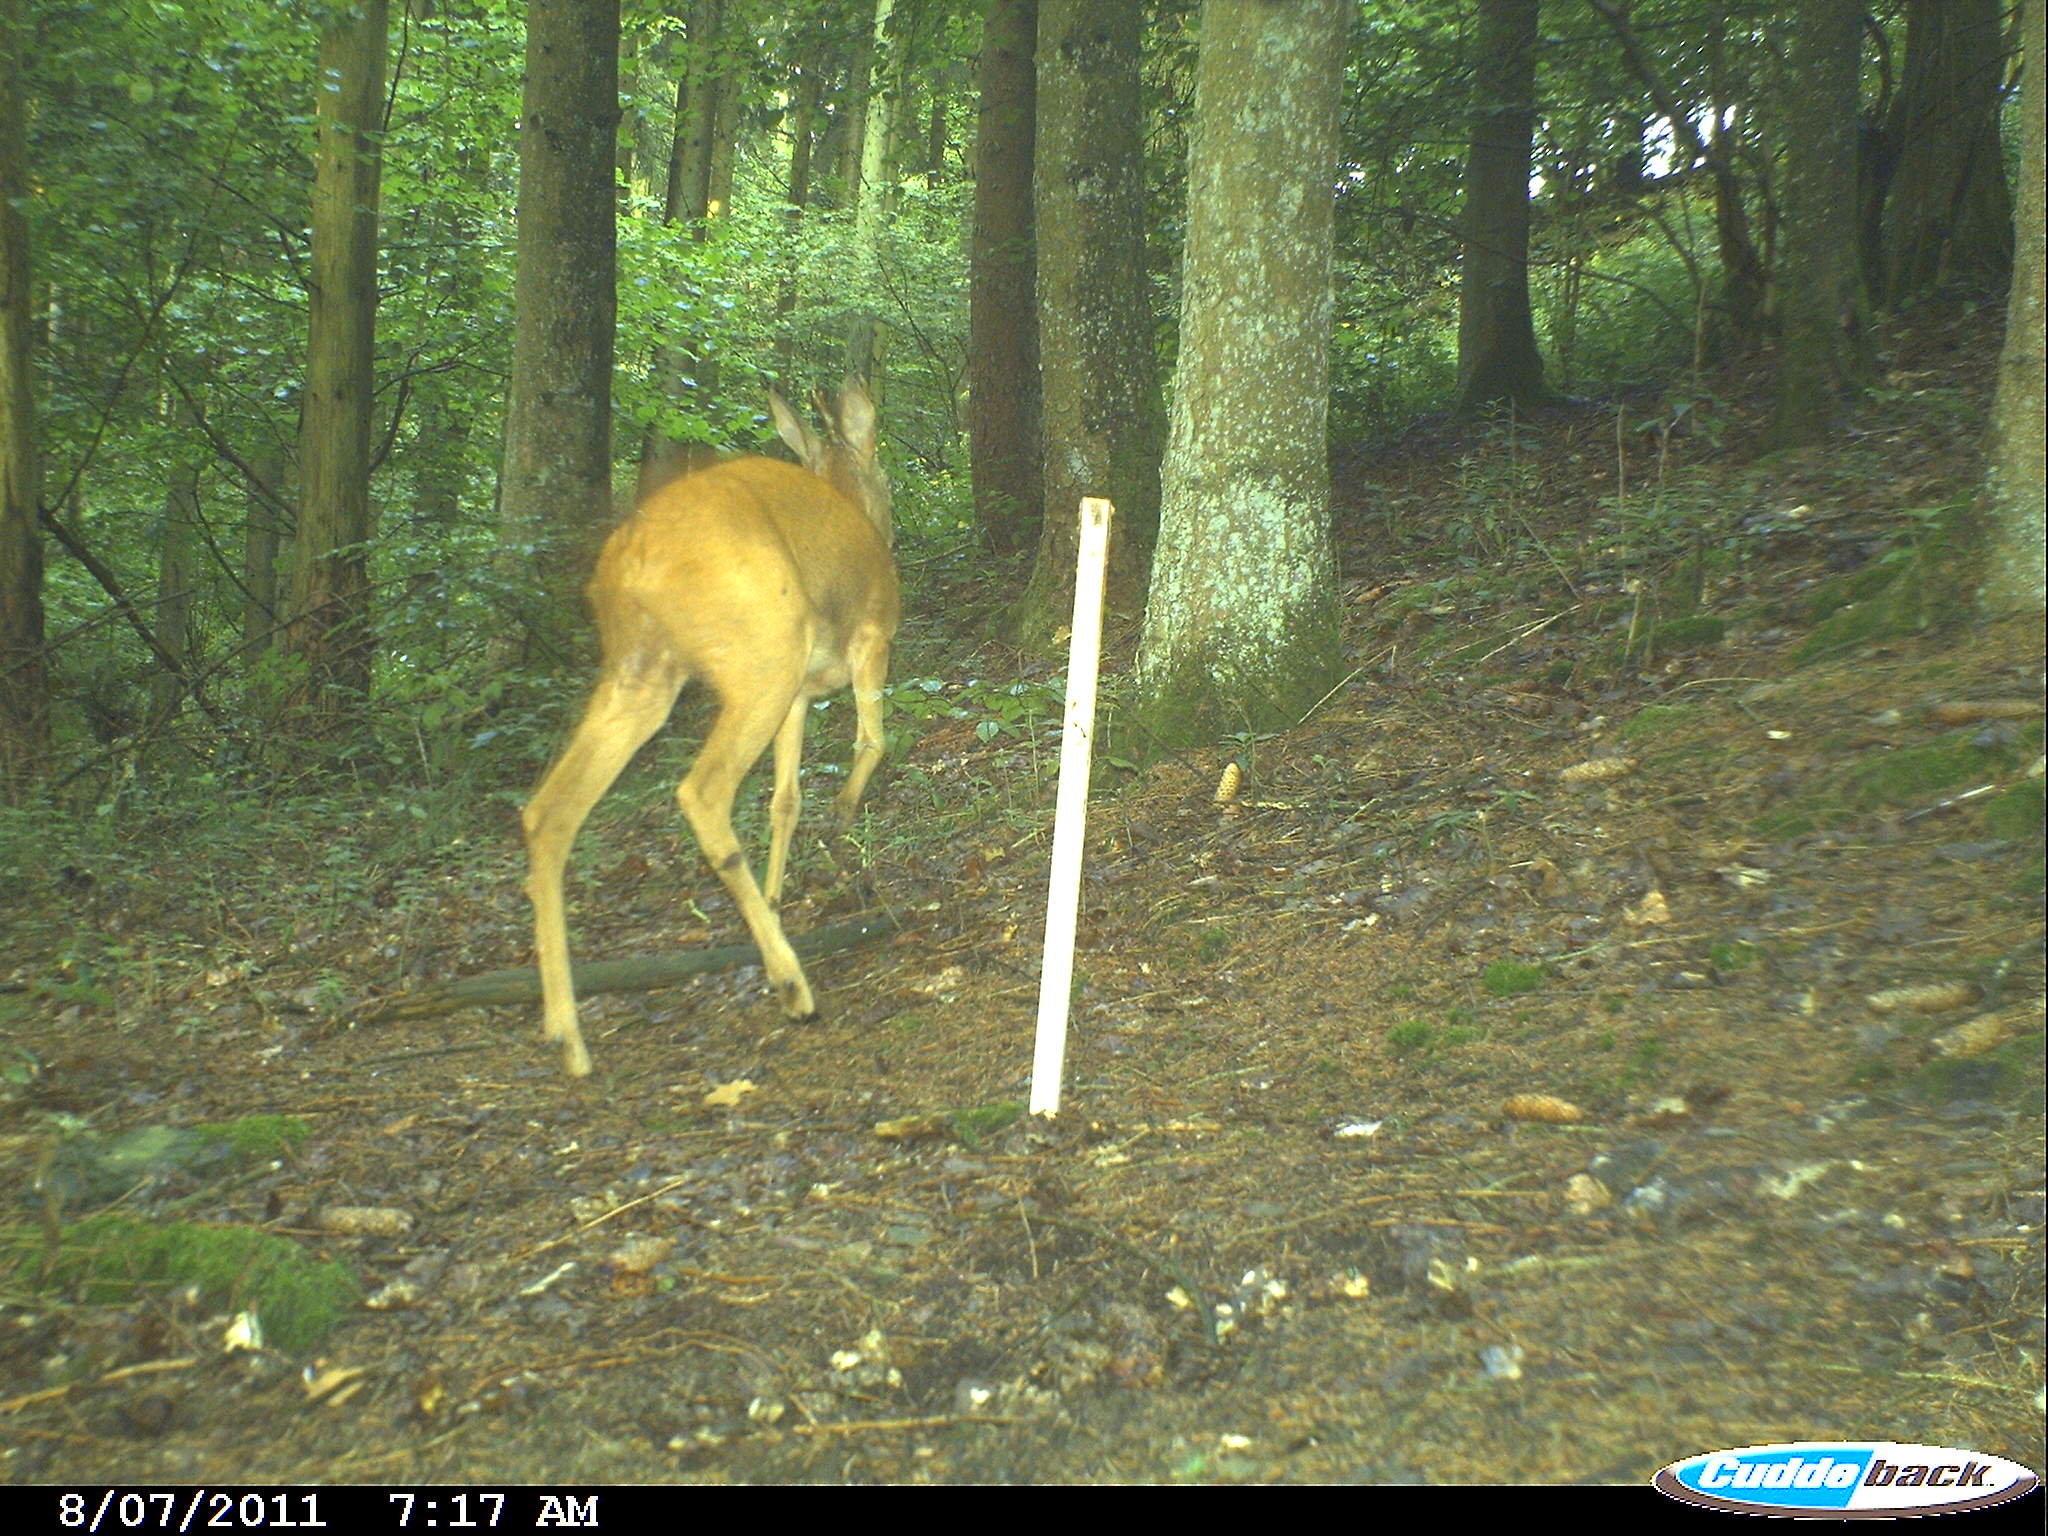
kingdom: Animalia
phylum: Chordata
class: Mammalia
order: Artiodactyla
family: Cervidae
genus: Capreolus
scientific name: Capreolus capreolus
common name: Western roe deer
